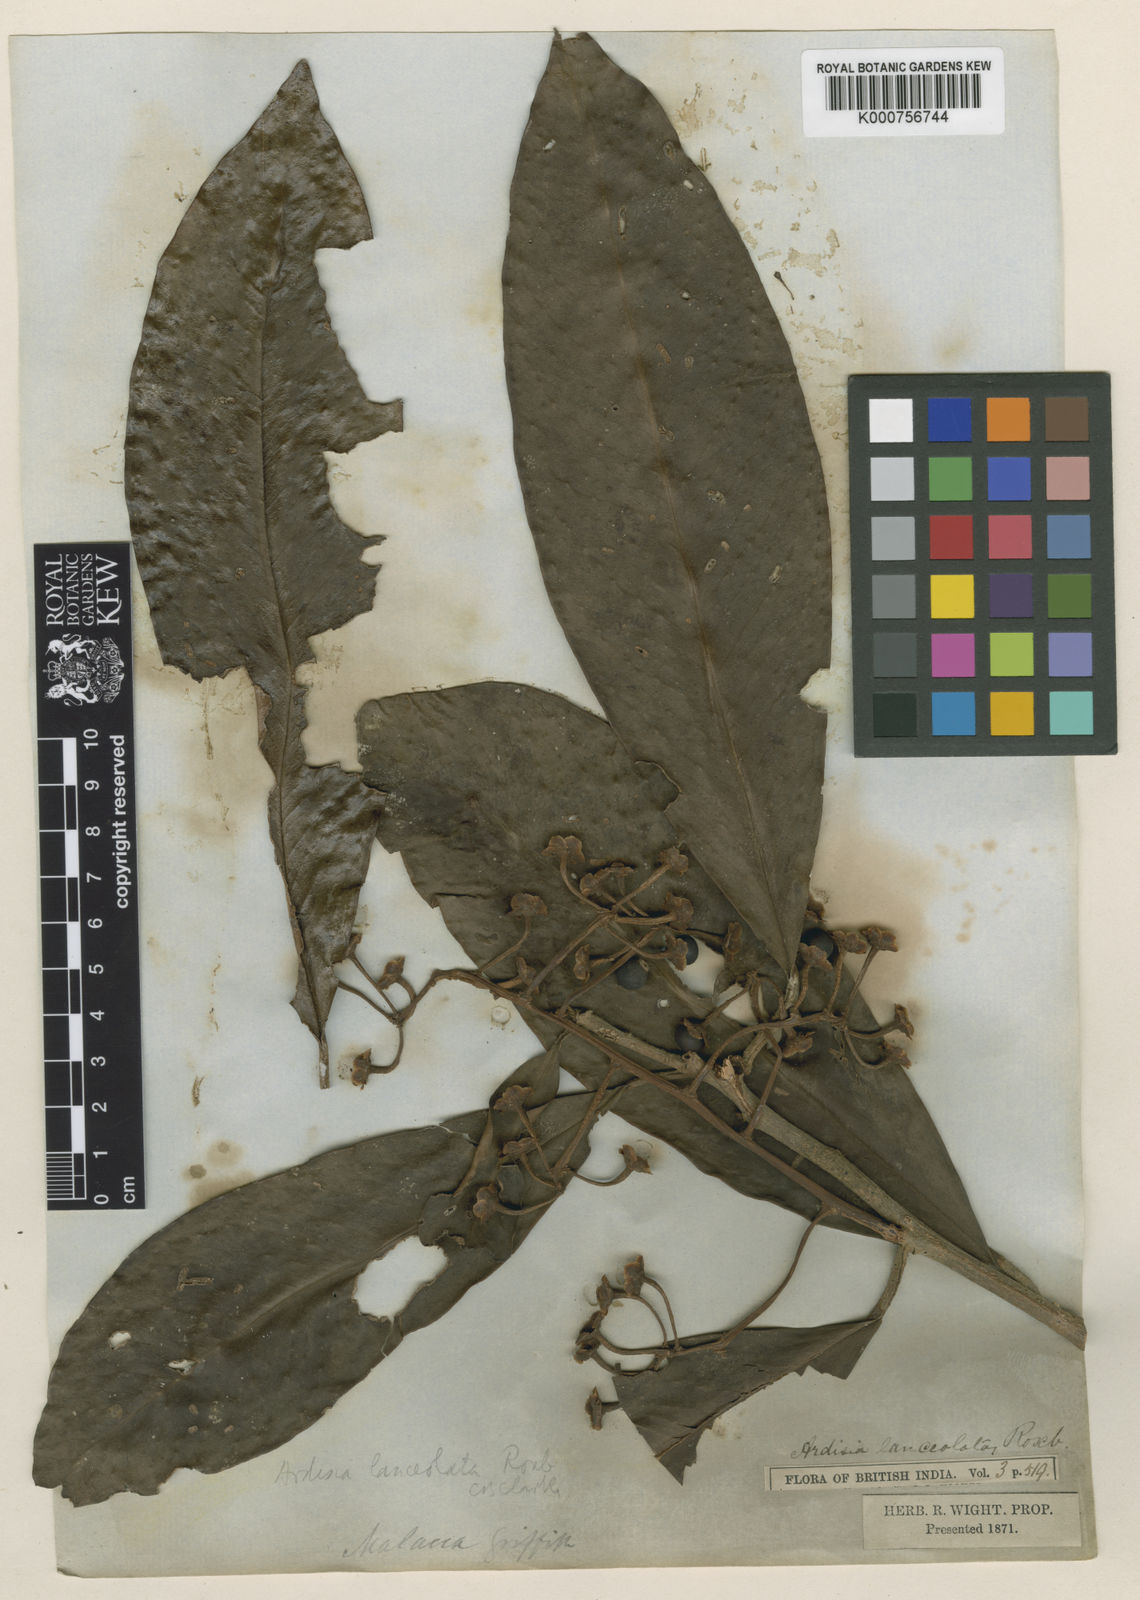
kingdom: Plantae
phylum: Tracheophyta
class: Magnoliopsida
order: Ericales
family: Primulaceae
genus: Ardisia
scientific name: Ardisia purpurea
